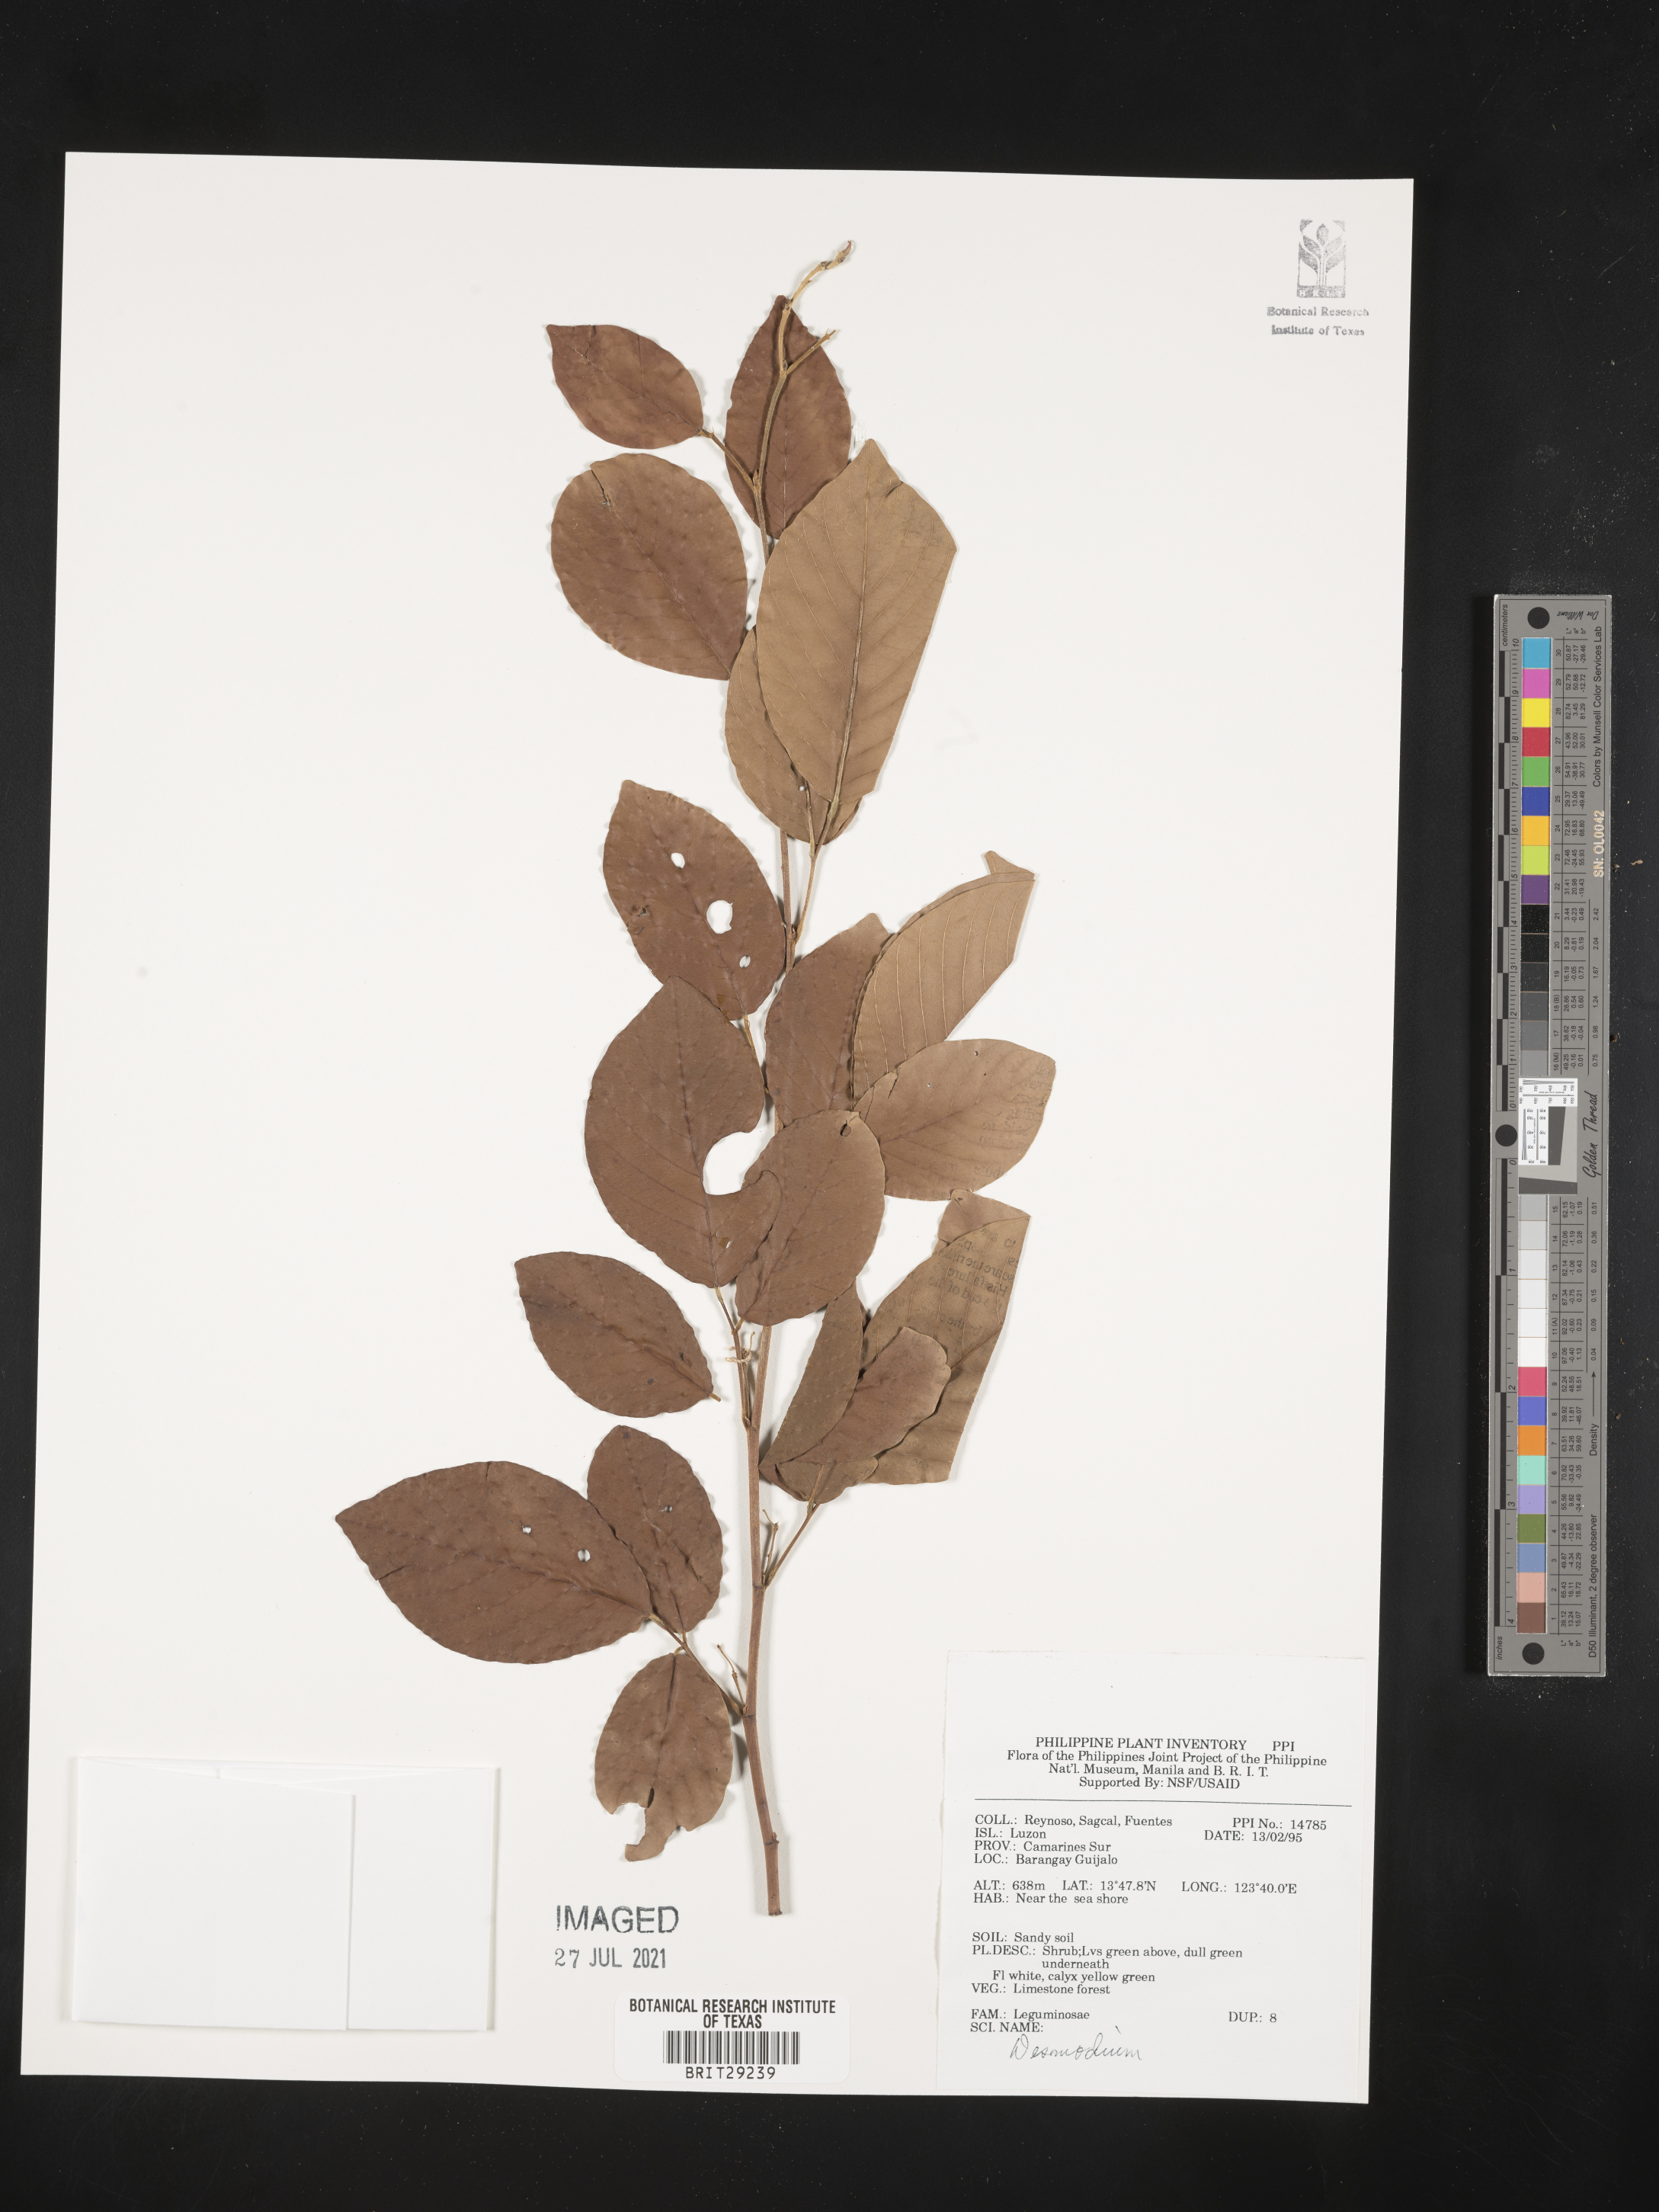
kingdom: Plantae
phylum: Tracheophyta
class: Magnoliopsida
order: Fabales
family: Fabaceae
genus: Desmodium
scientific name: Desmodium
